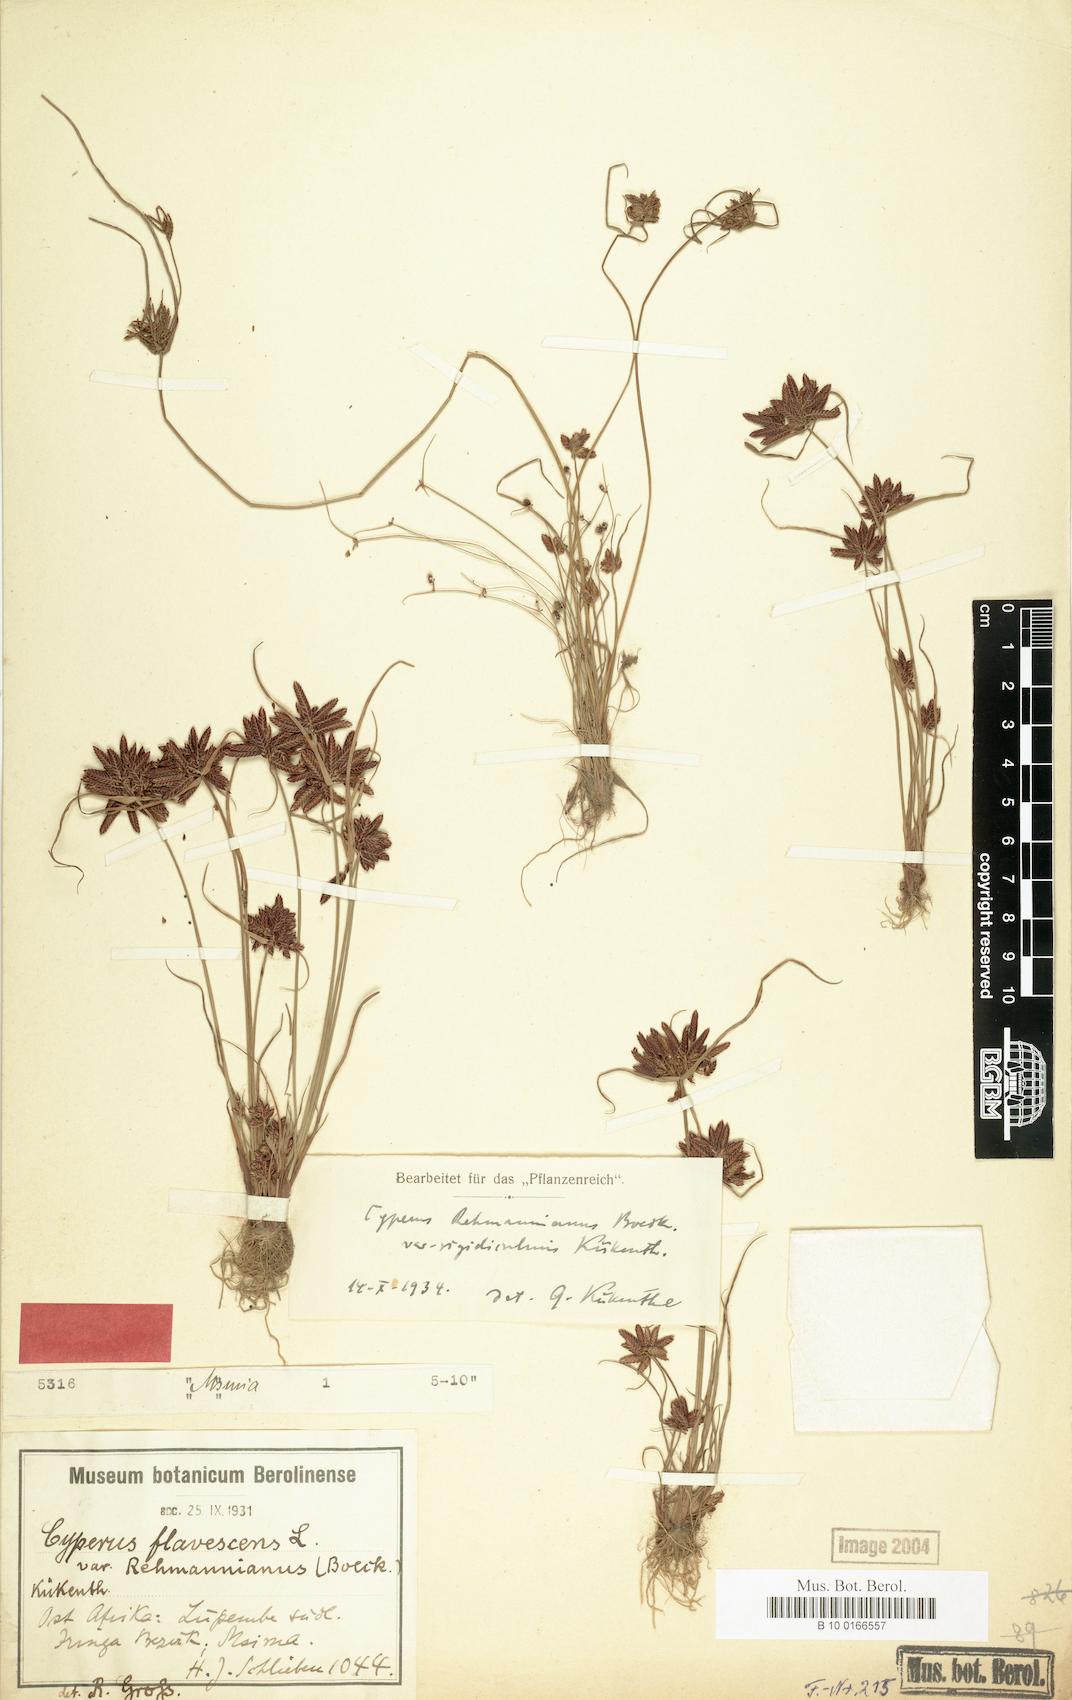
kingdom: Plantae
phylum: Tracheophyta
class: Liliopsida
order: Poales
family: Cyperaceae
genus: Cyperus
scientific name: Cyperus flavescens
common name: Yellow galingale
